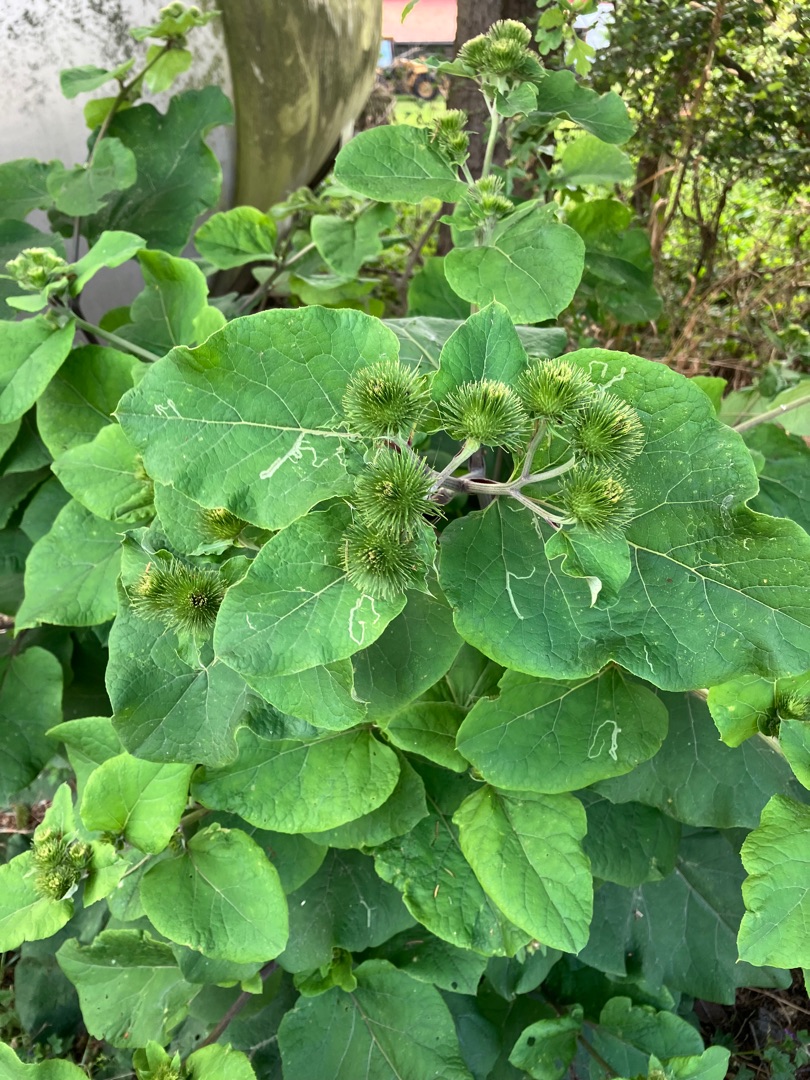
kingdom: Plantae
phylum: Tracheophyta
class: Magnoliopsida
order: Asterales
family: Asteraceae
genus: Arctium
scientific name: Arctium lappa
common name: Glat burre
